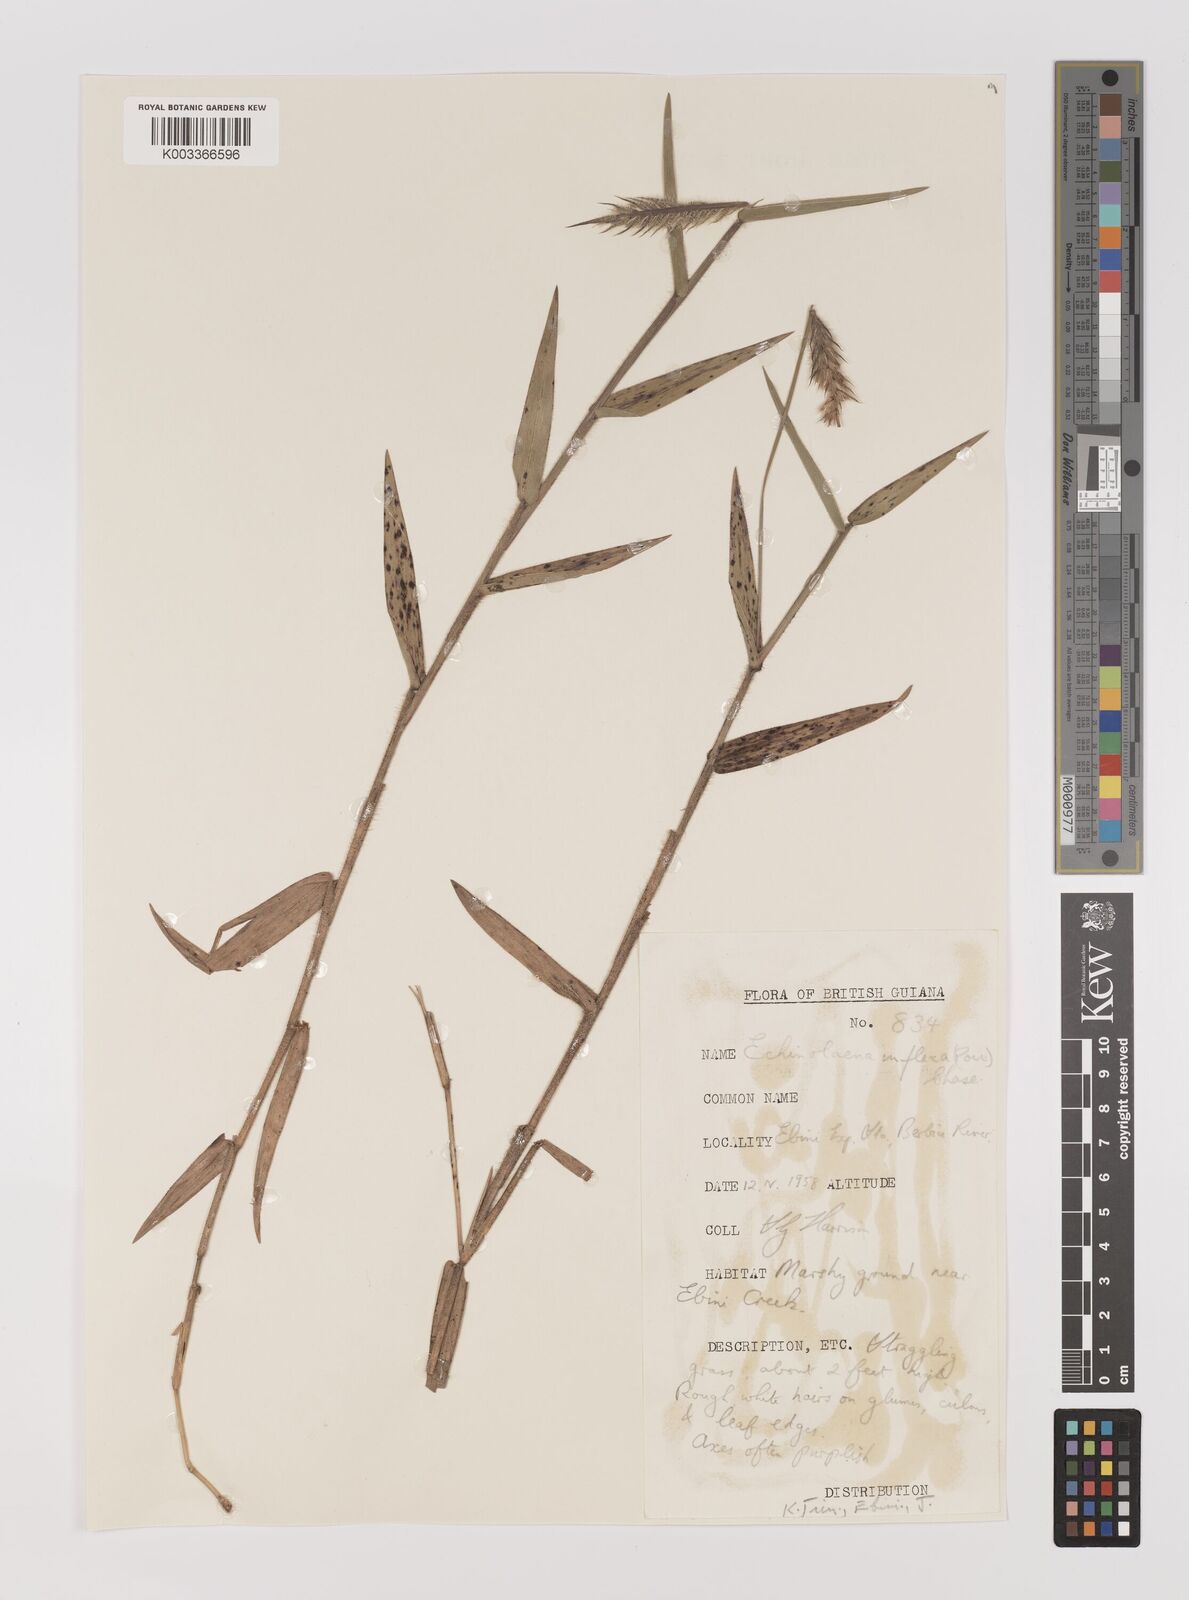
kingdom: Plantae
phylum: Tracheophyta
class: Liliopsida
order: Poales
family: Poaceae
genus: Echinolaena
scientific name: Echinolaena inflexa
